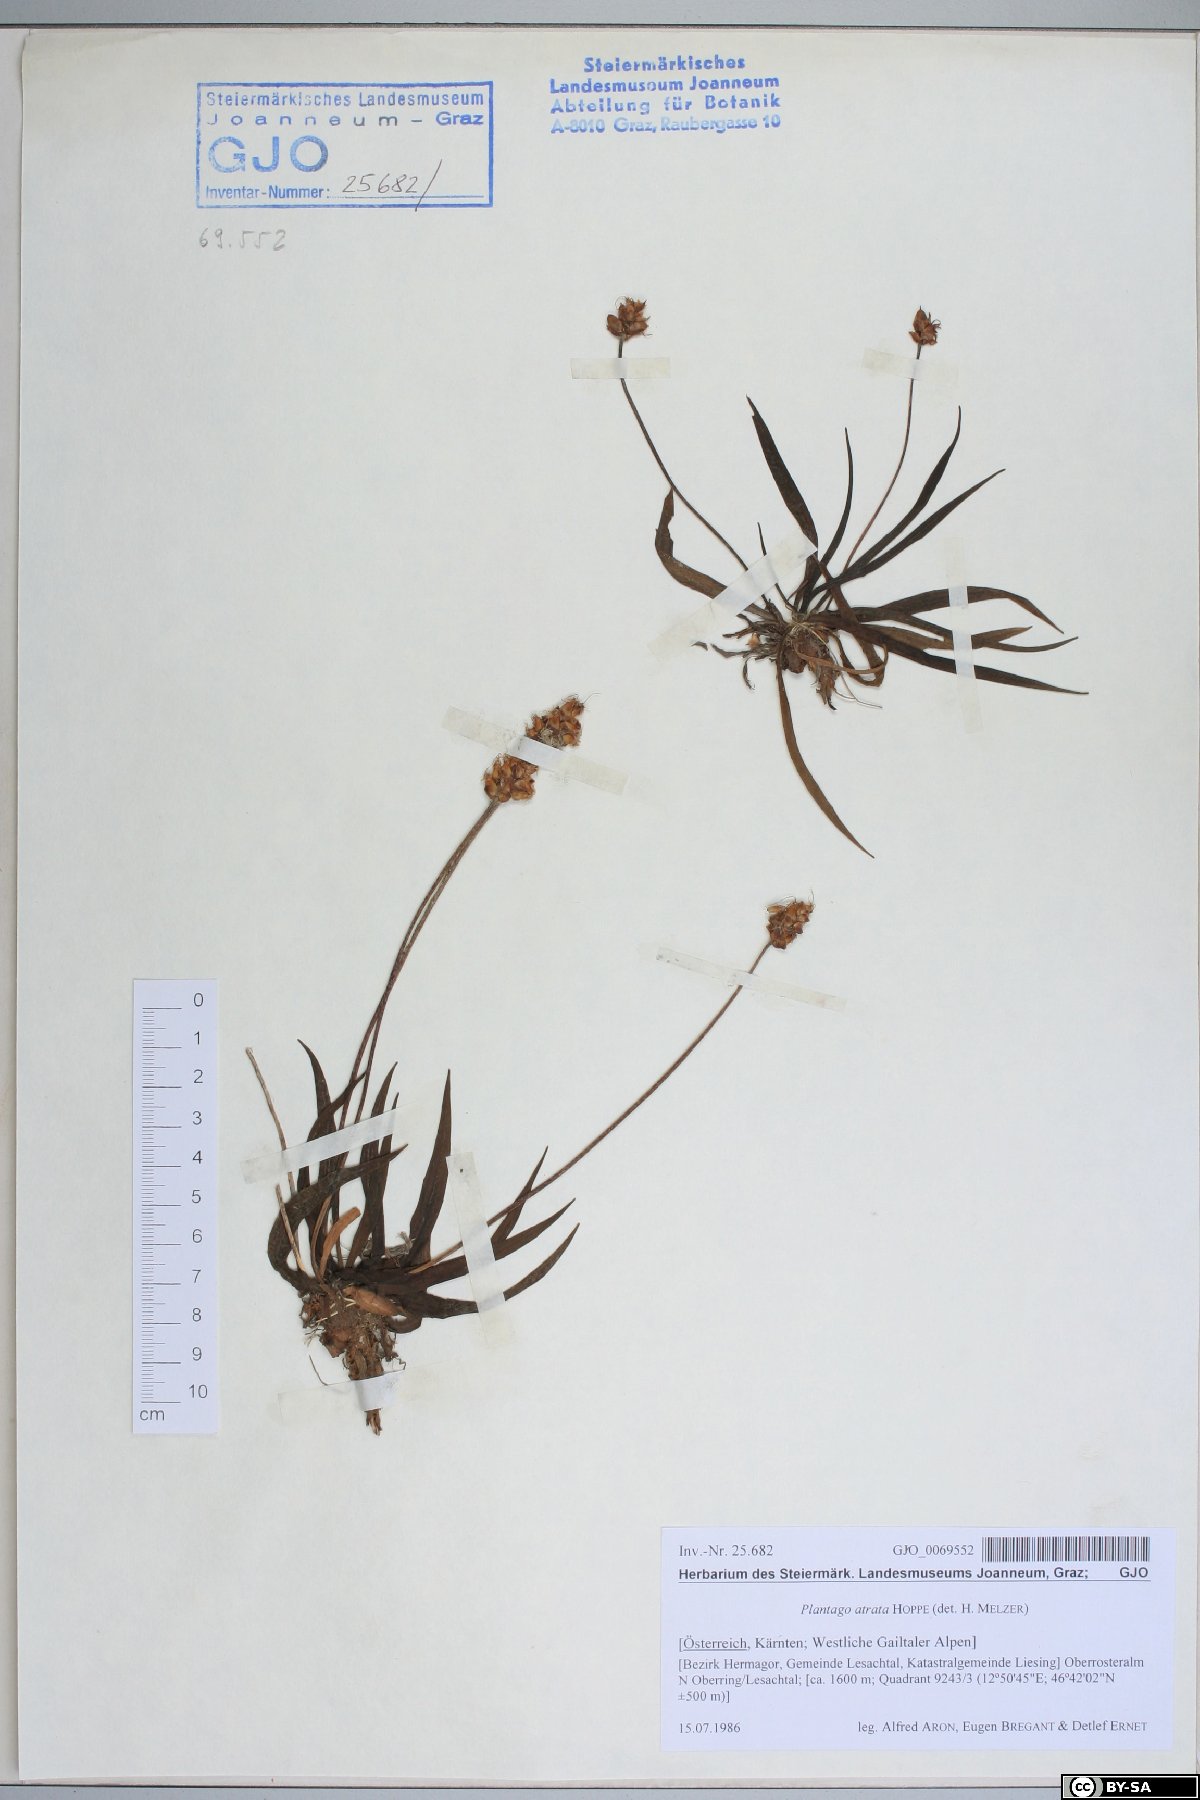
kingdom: Plantae
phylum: Tracheophyta
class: Magnoliopsida
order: Lamiales
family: Plantaginaceae
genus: Plantago
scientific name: Plantago atrata
